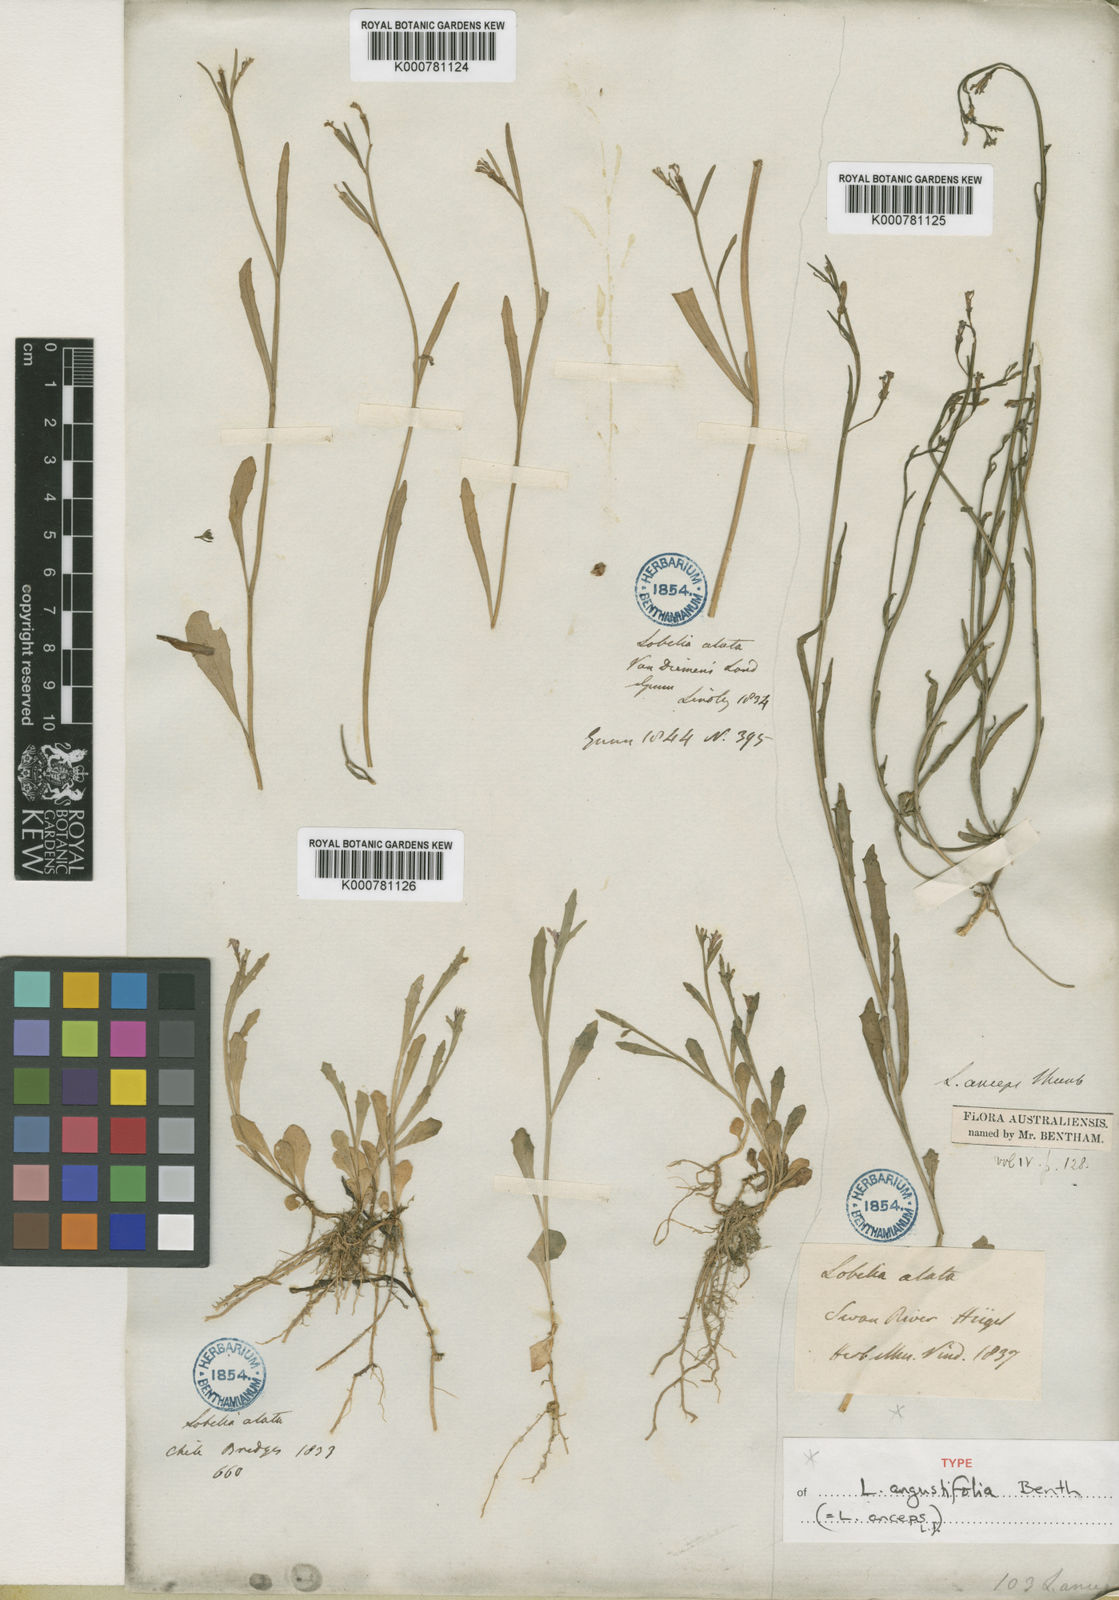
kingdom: Plantae
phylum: Tracheophyta
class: Magnoliopsida
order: Asterales
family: Campanulaceae
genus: Lobelia
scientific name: Lobelia
